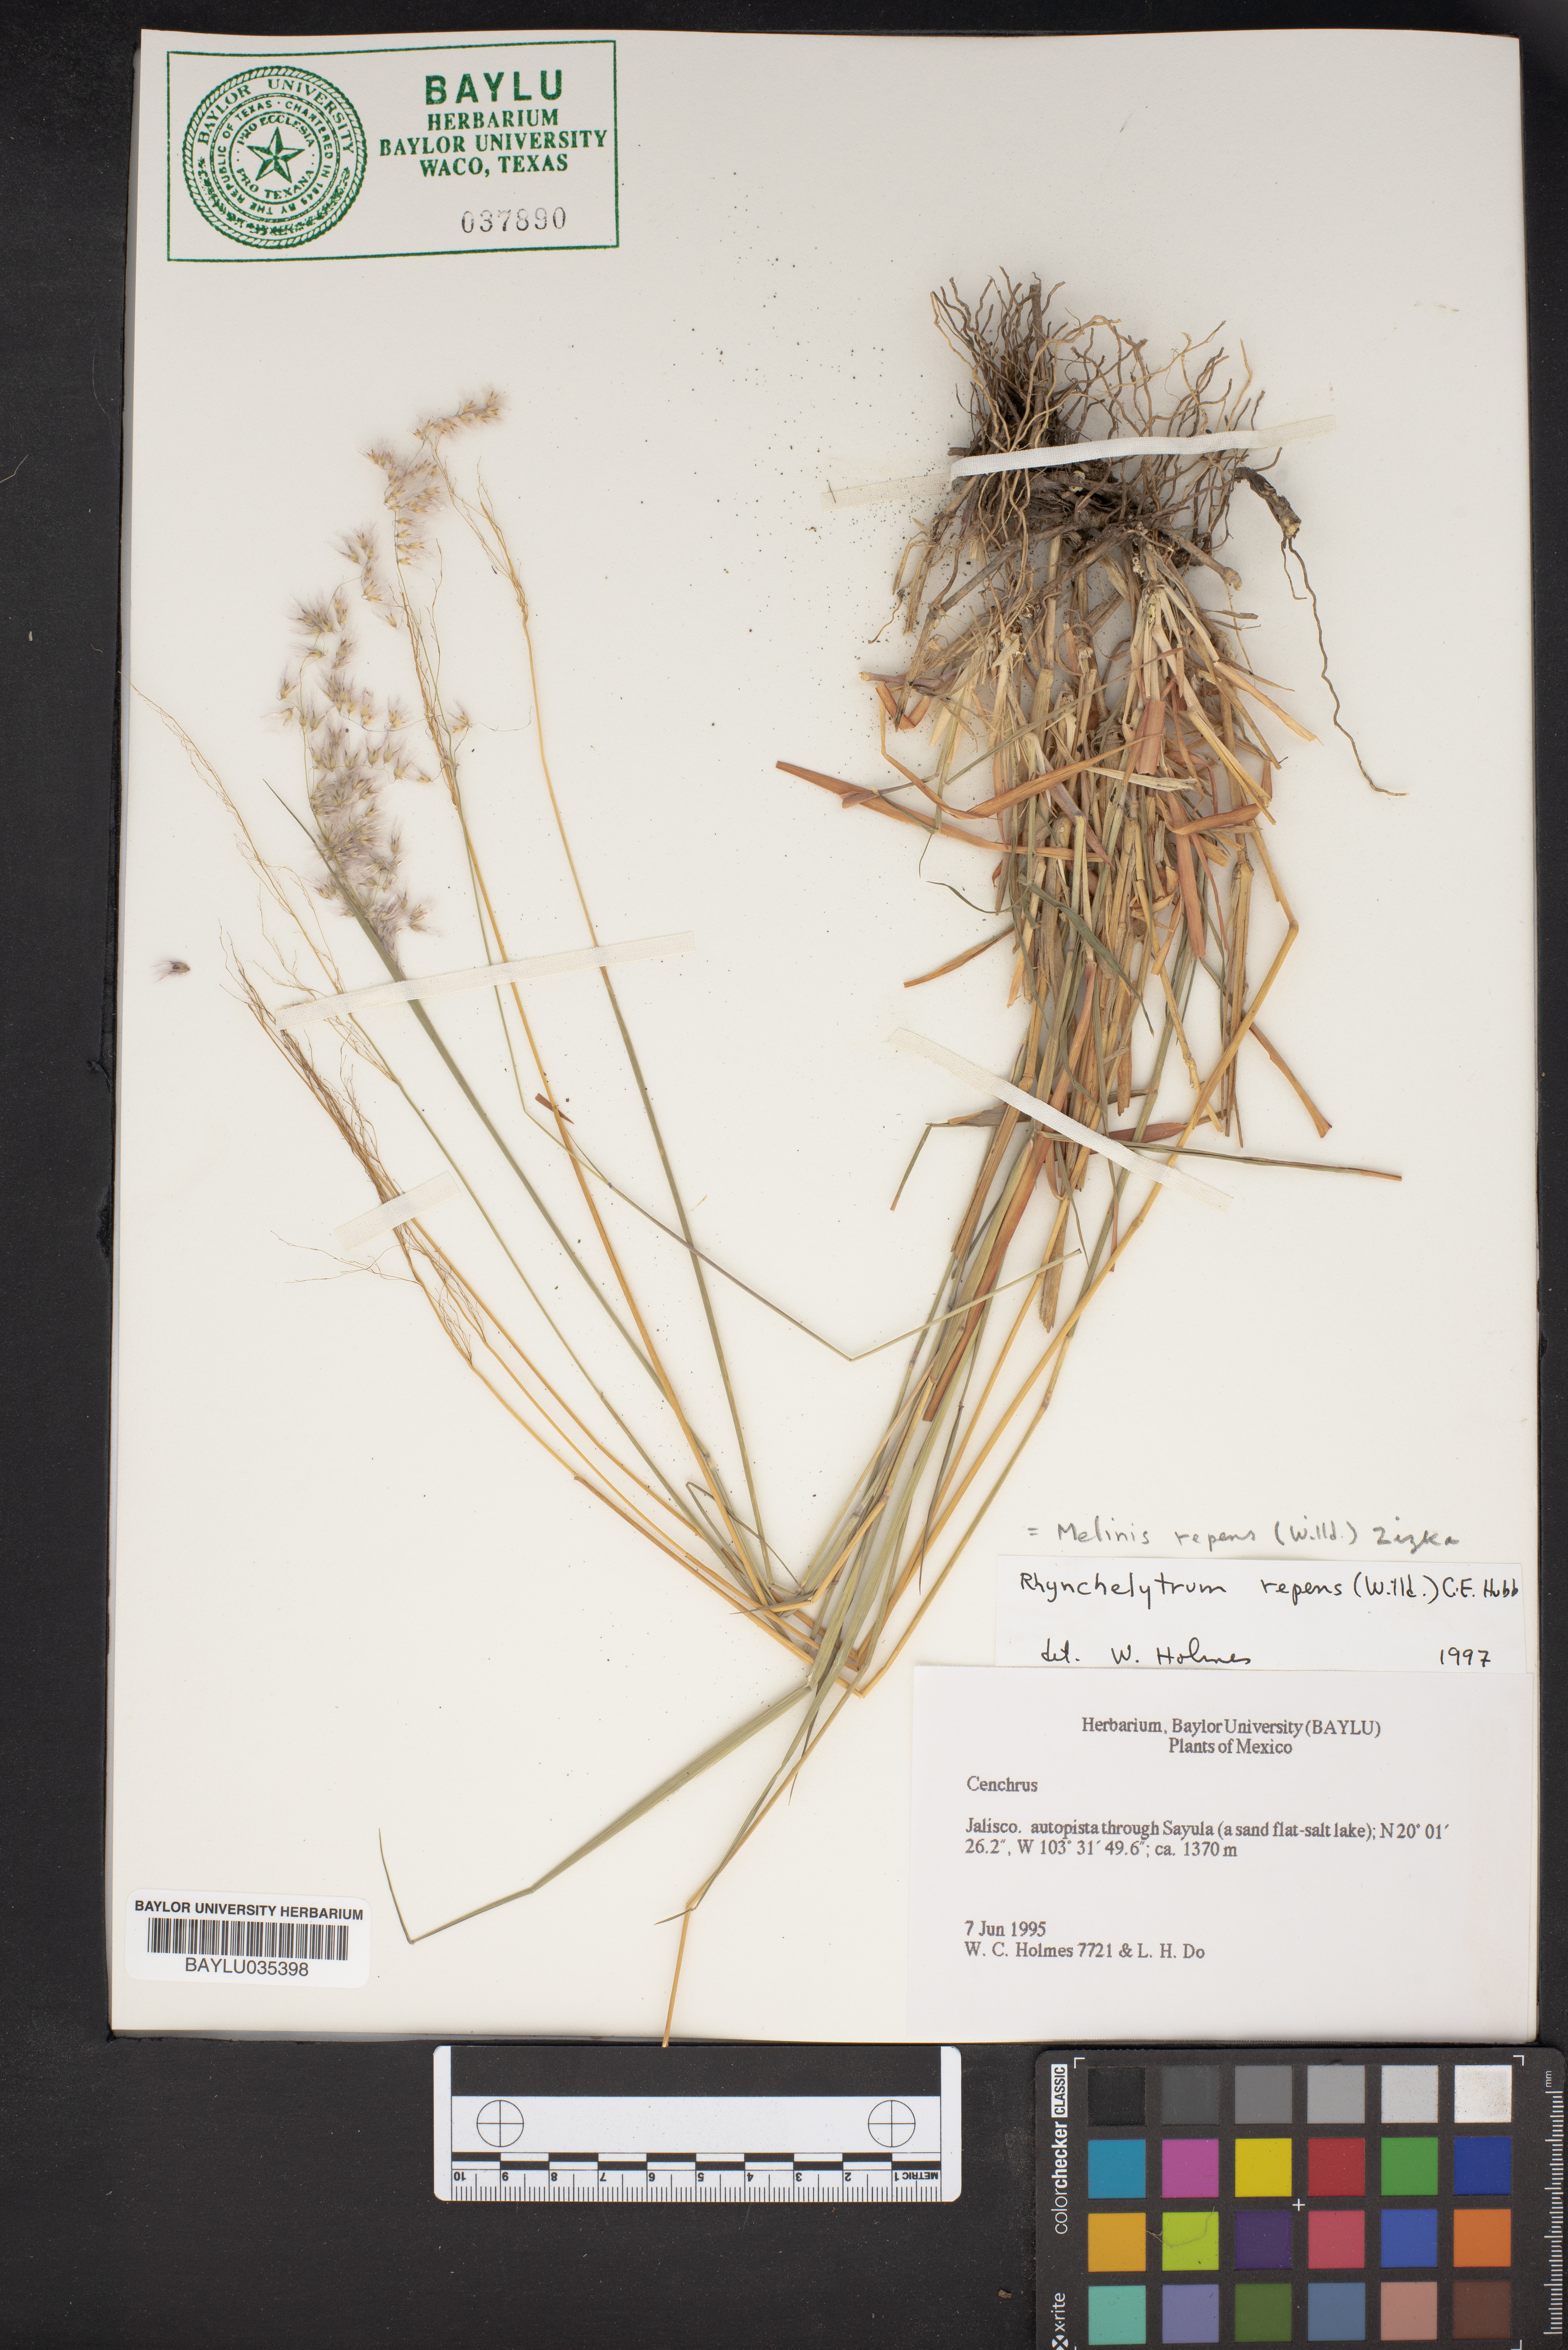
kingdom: Plantae
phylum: Tracheophyta
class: Liliopsida
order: Poales
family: Poaceae
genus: Melinis
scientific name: Melinis repens
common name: Rose natal grass
